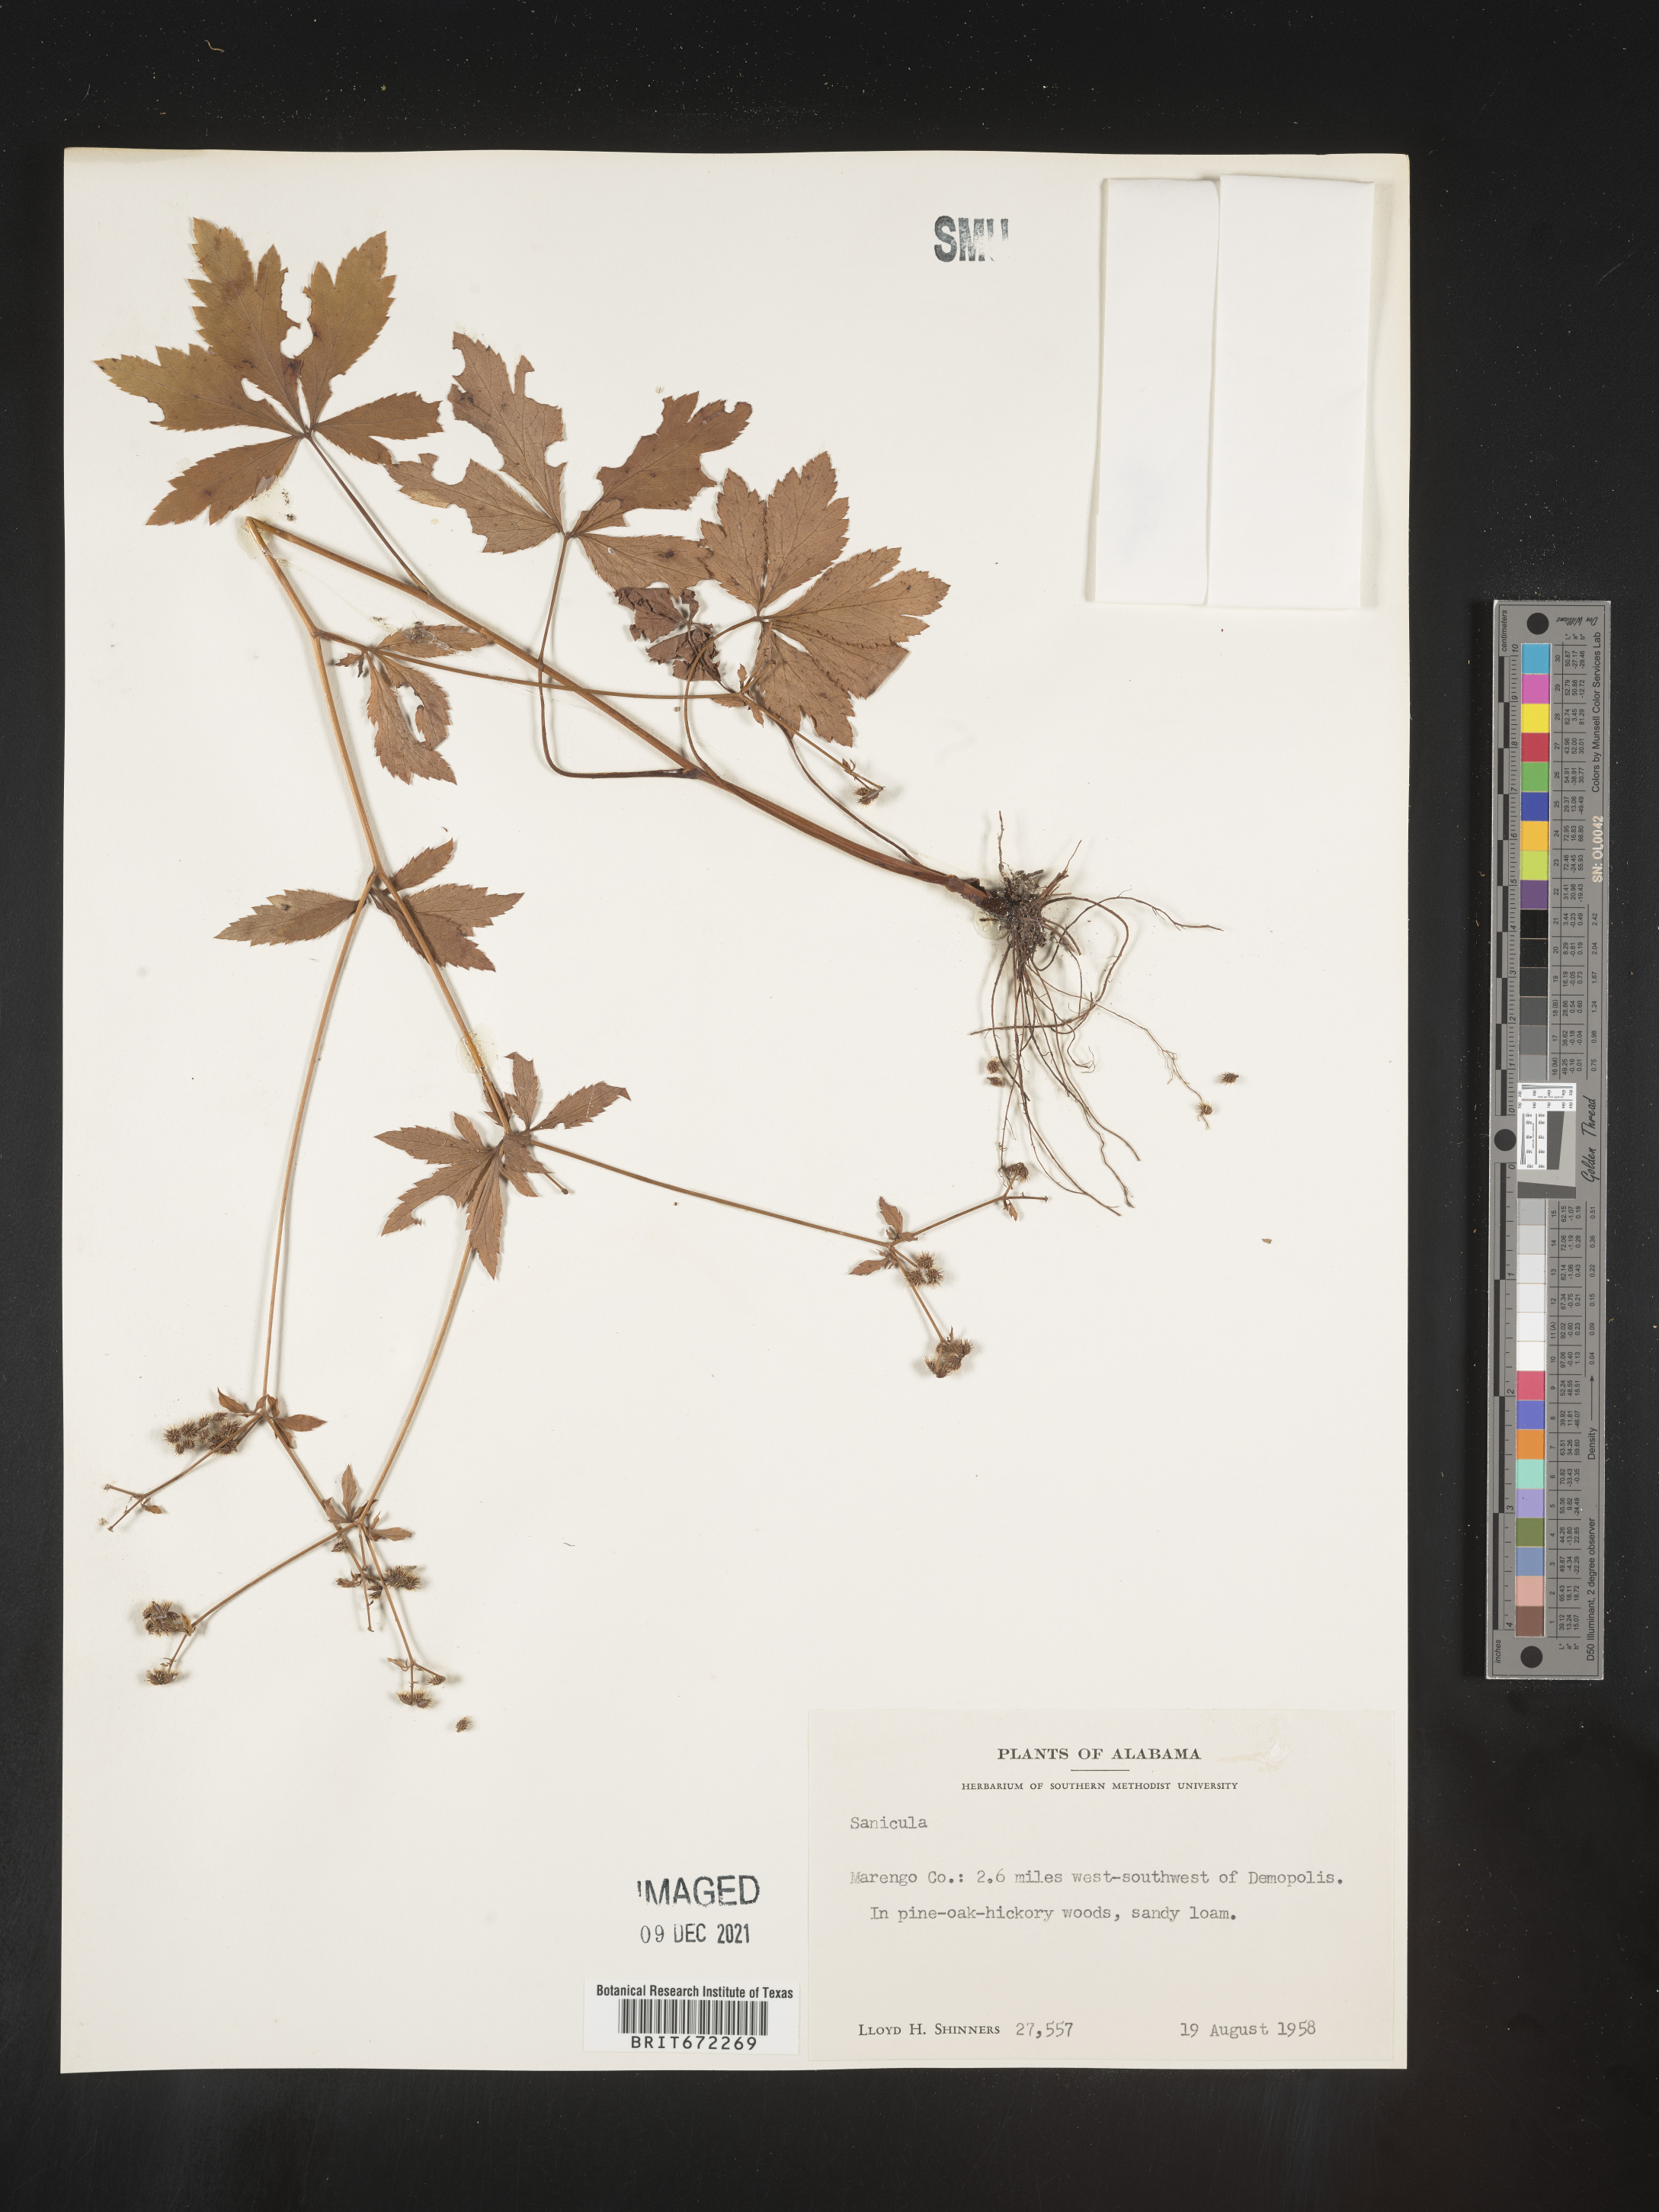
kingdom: Plantae
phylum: Tracheophyta
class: Magnoliopsida
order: Apiales
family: Apiaceae
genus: Sanicula
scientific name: Sanicula
